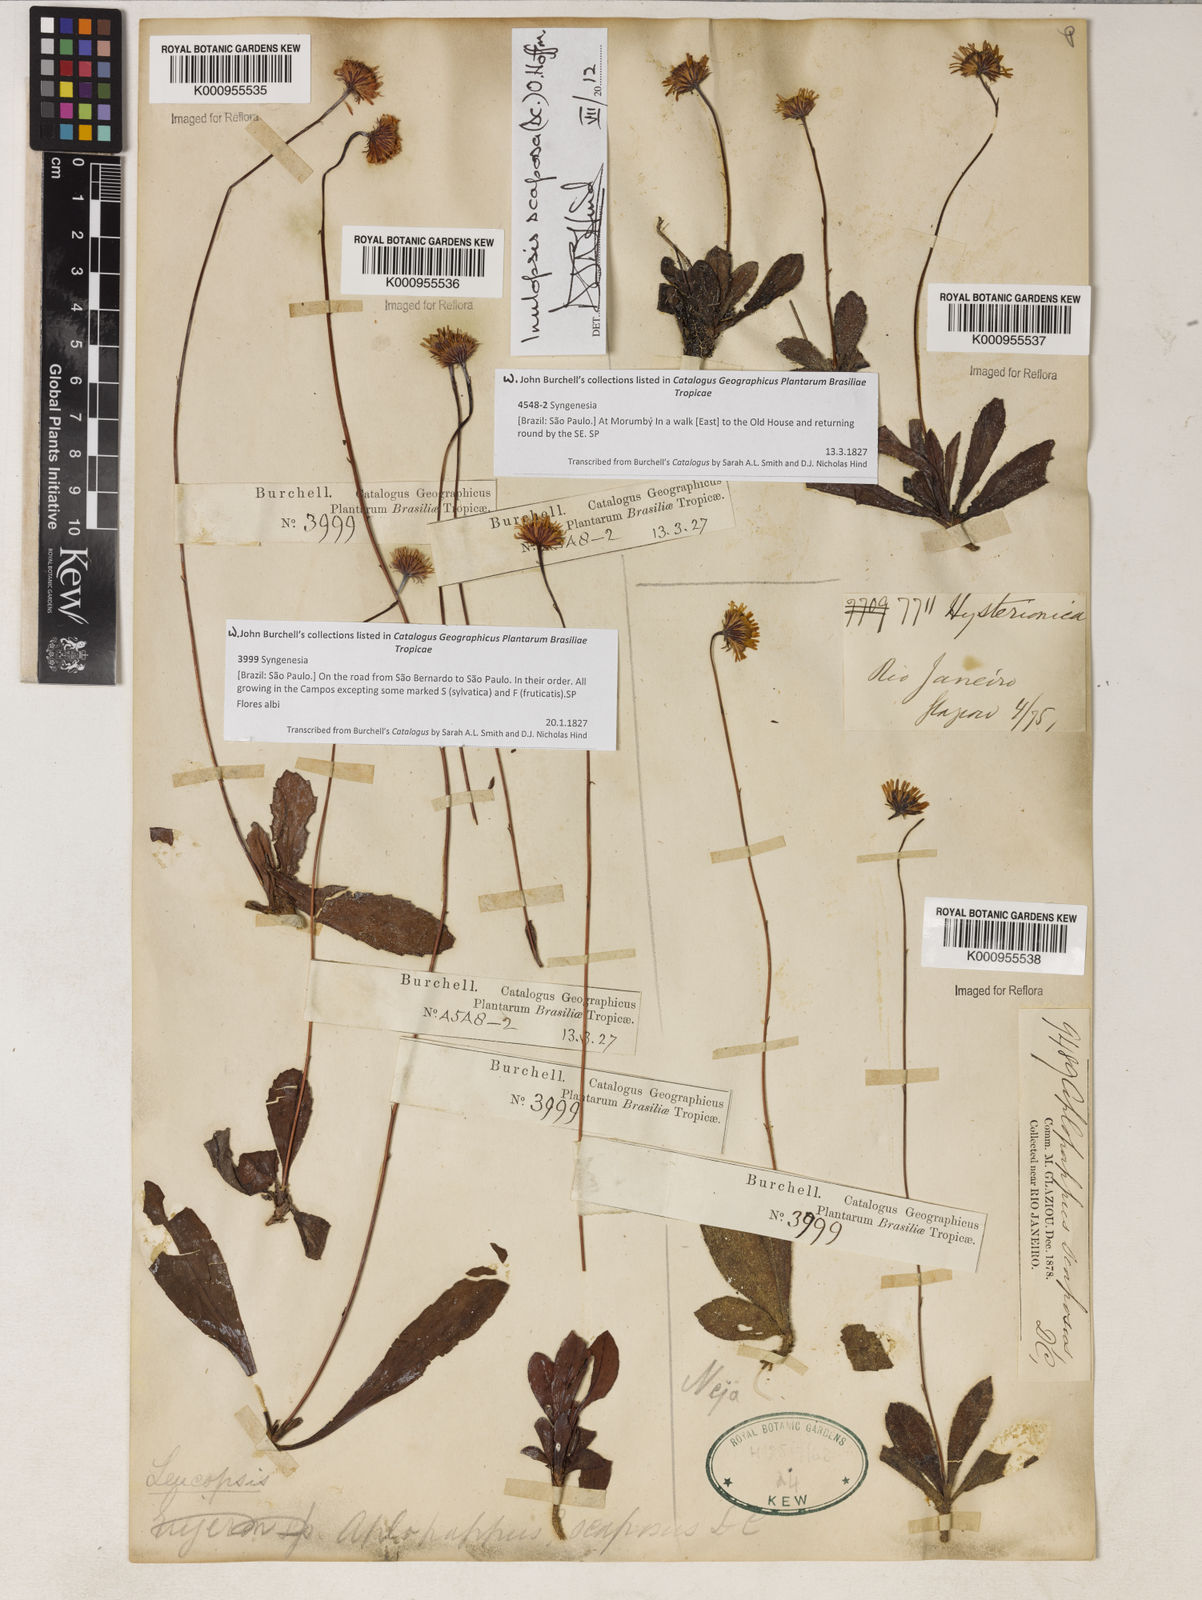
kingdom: Plantae
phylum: Tracheophyta
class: Magnoliopsida
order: Asterales
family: Asteraceae
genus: Inulopsis
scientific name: Inulopsis scaposa
